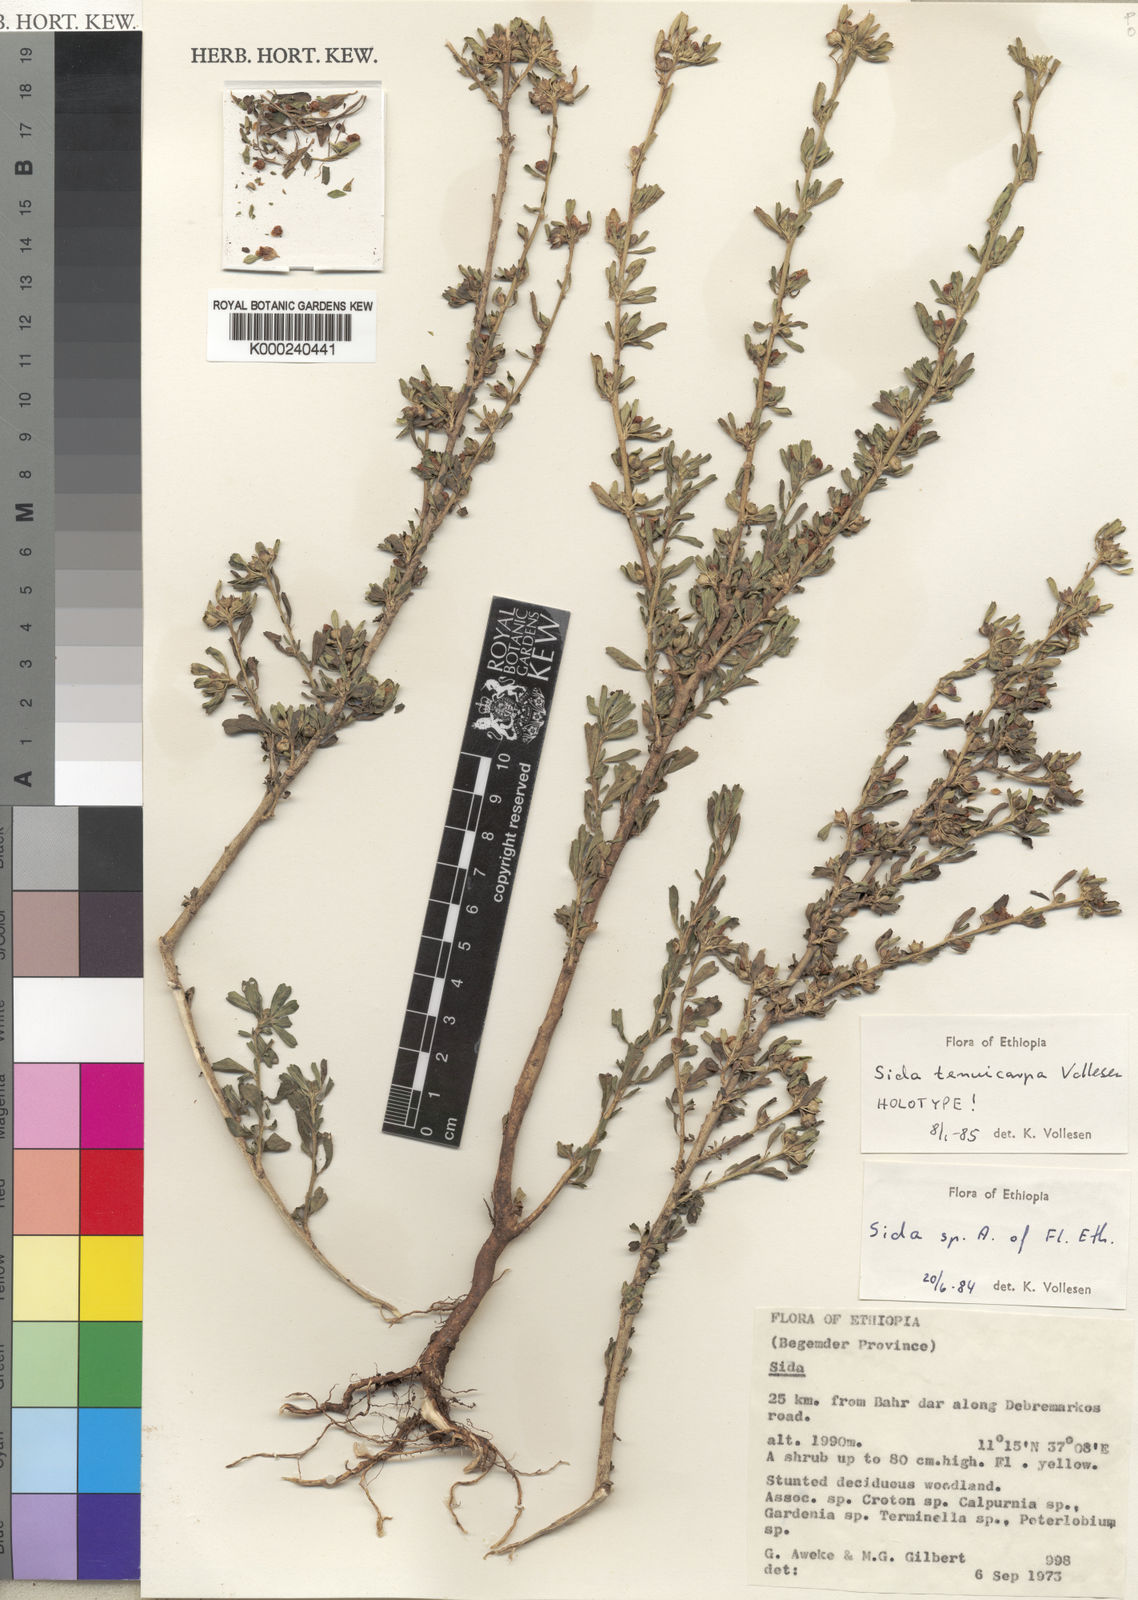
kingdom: Plantae
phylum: Tracheophyta
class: Magnoliopsida
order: Malvales
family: Malvaceae
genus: Sida
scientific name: Sida tenuicarpa
